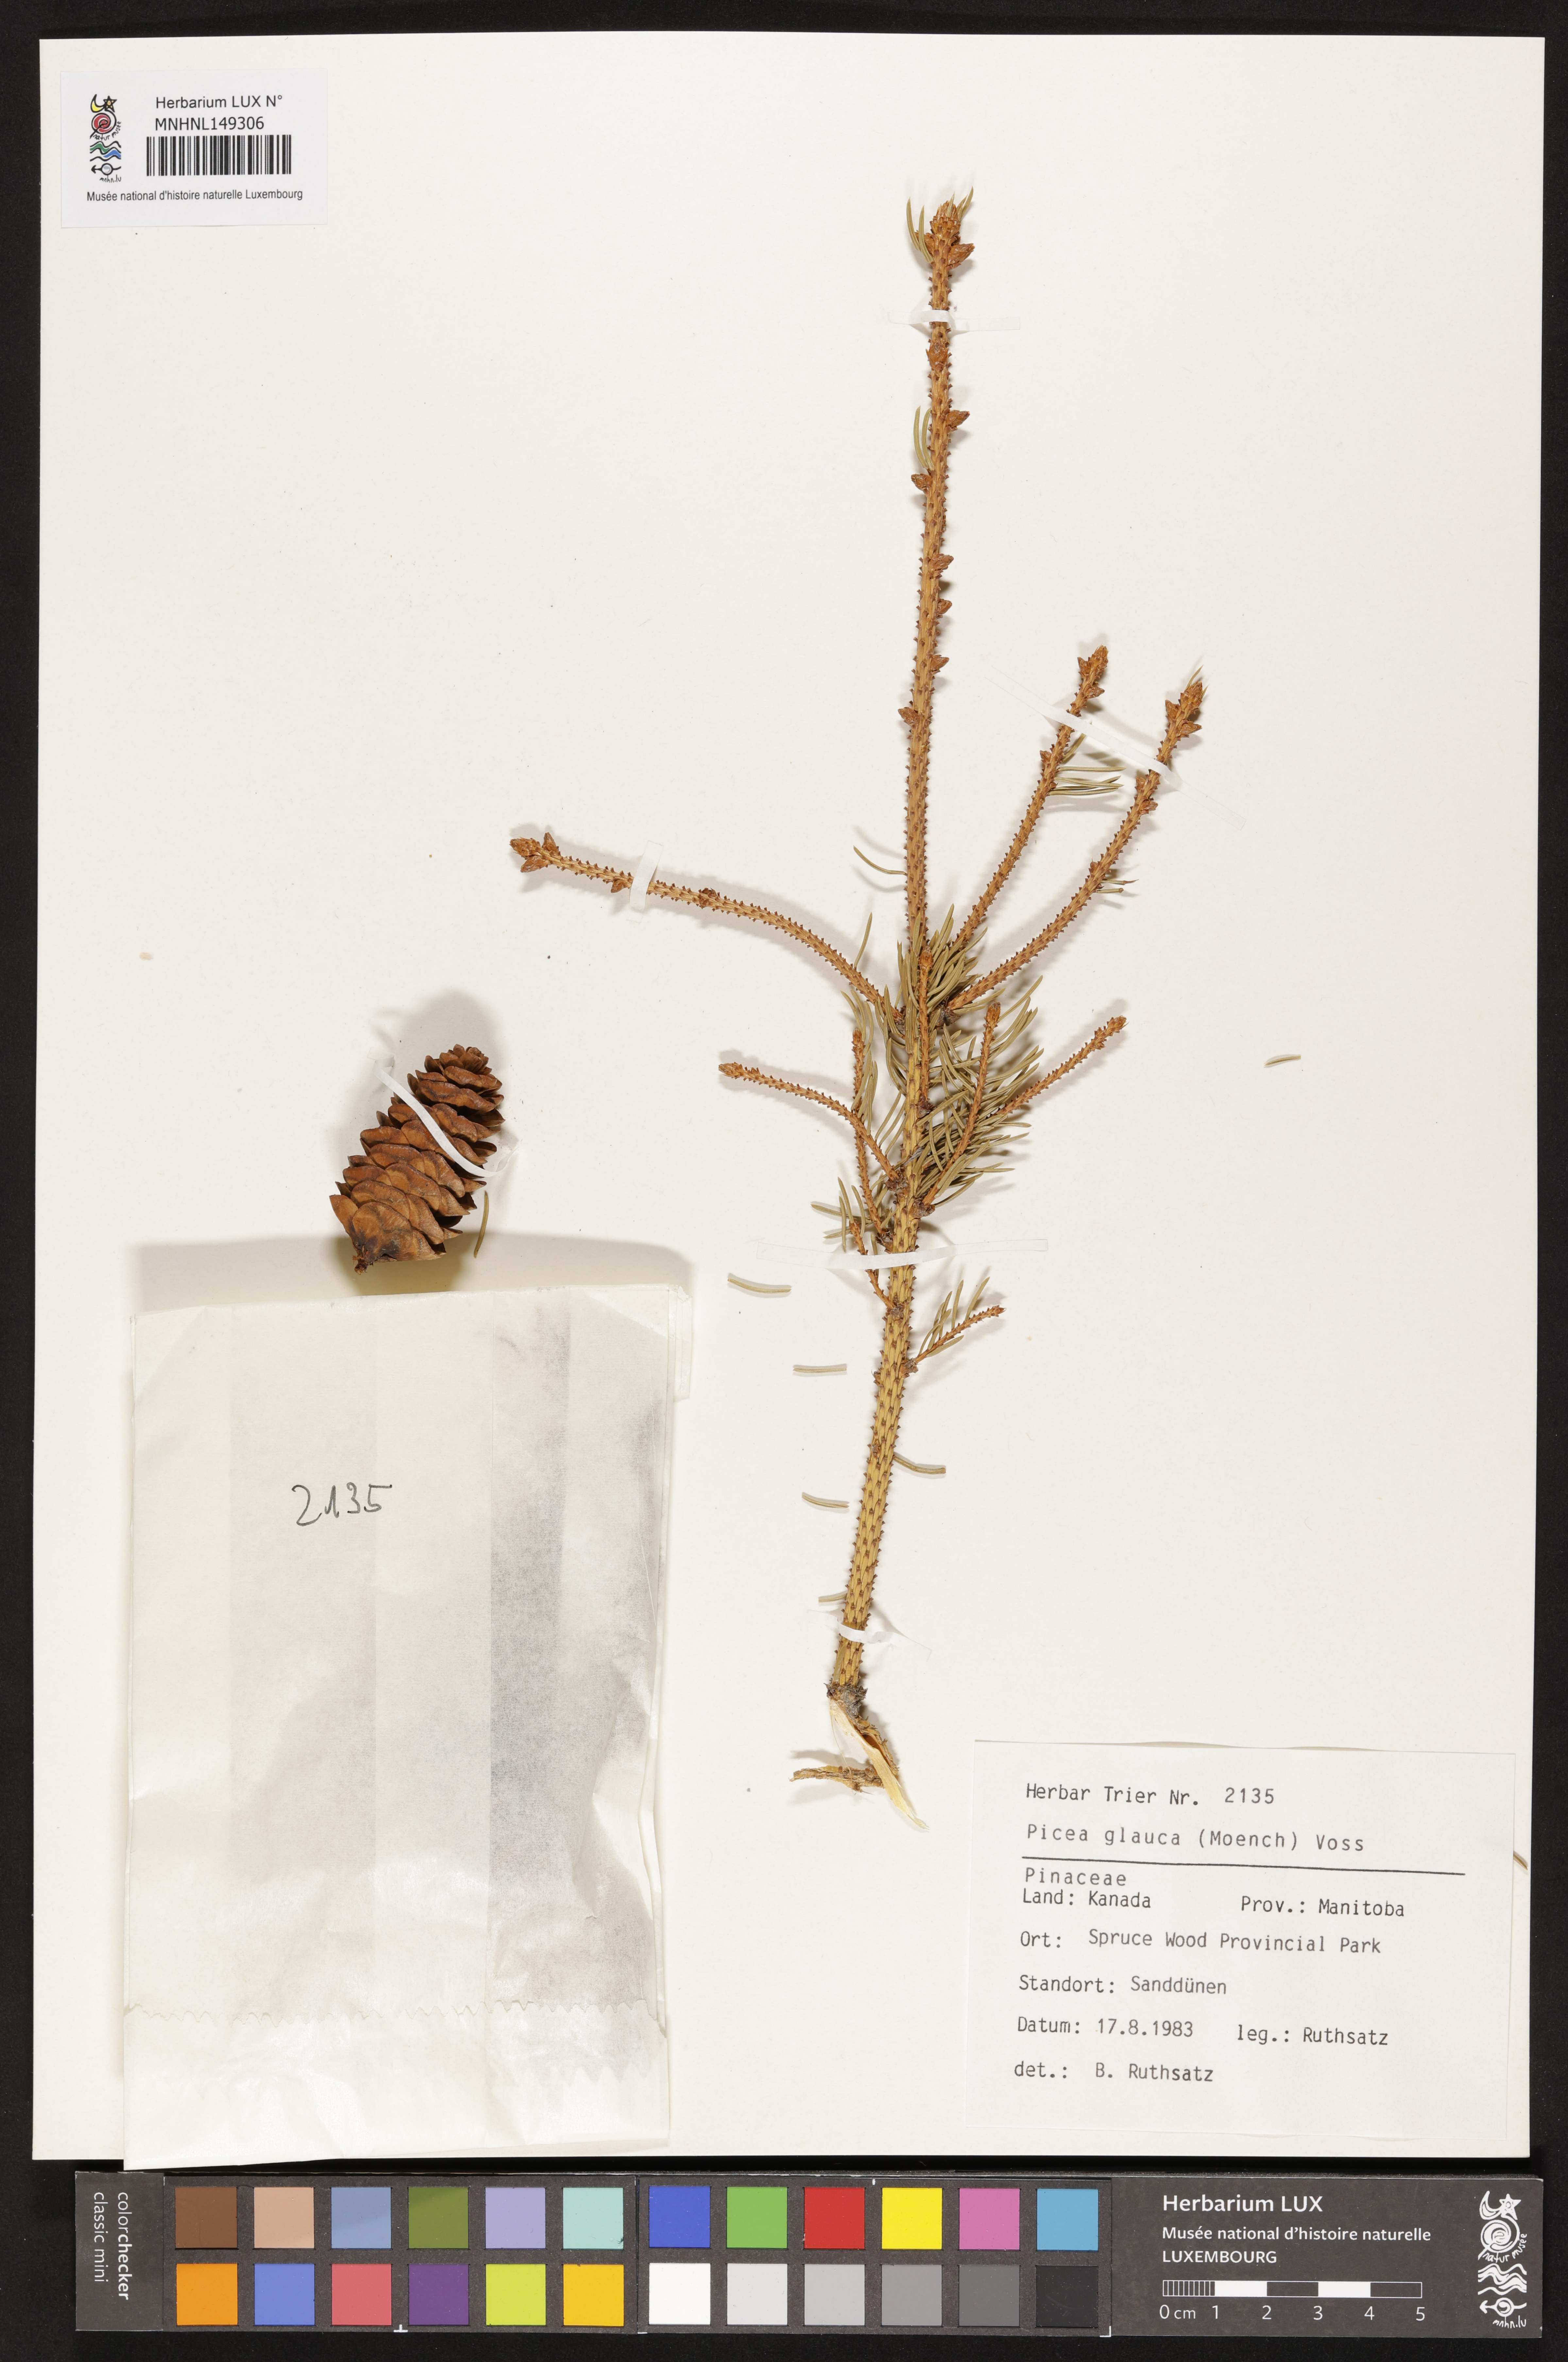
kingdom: Plantae
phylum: Tracheophyta
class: Pinopsida
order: Pinales
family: Pinaceae
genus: Picea
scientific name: Picea glauca
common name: White spruce
